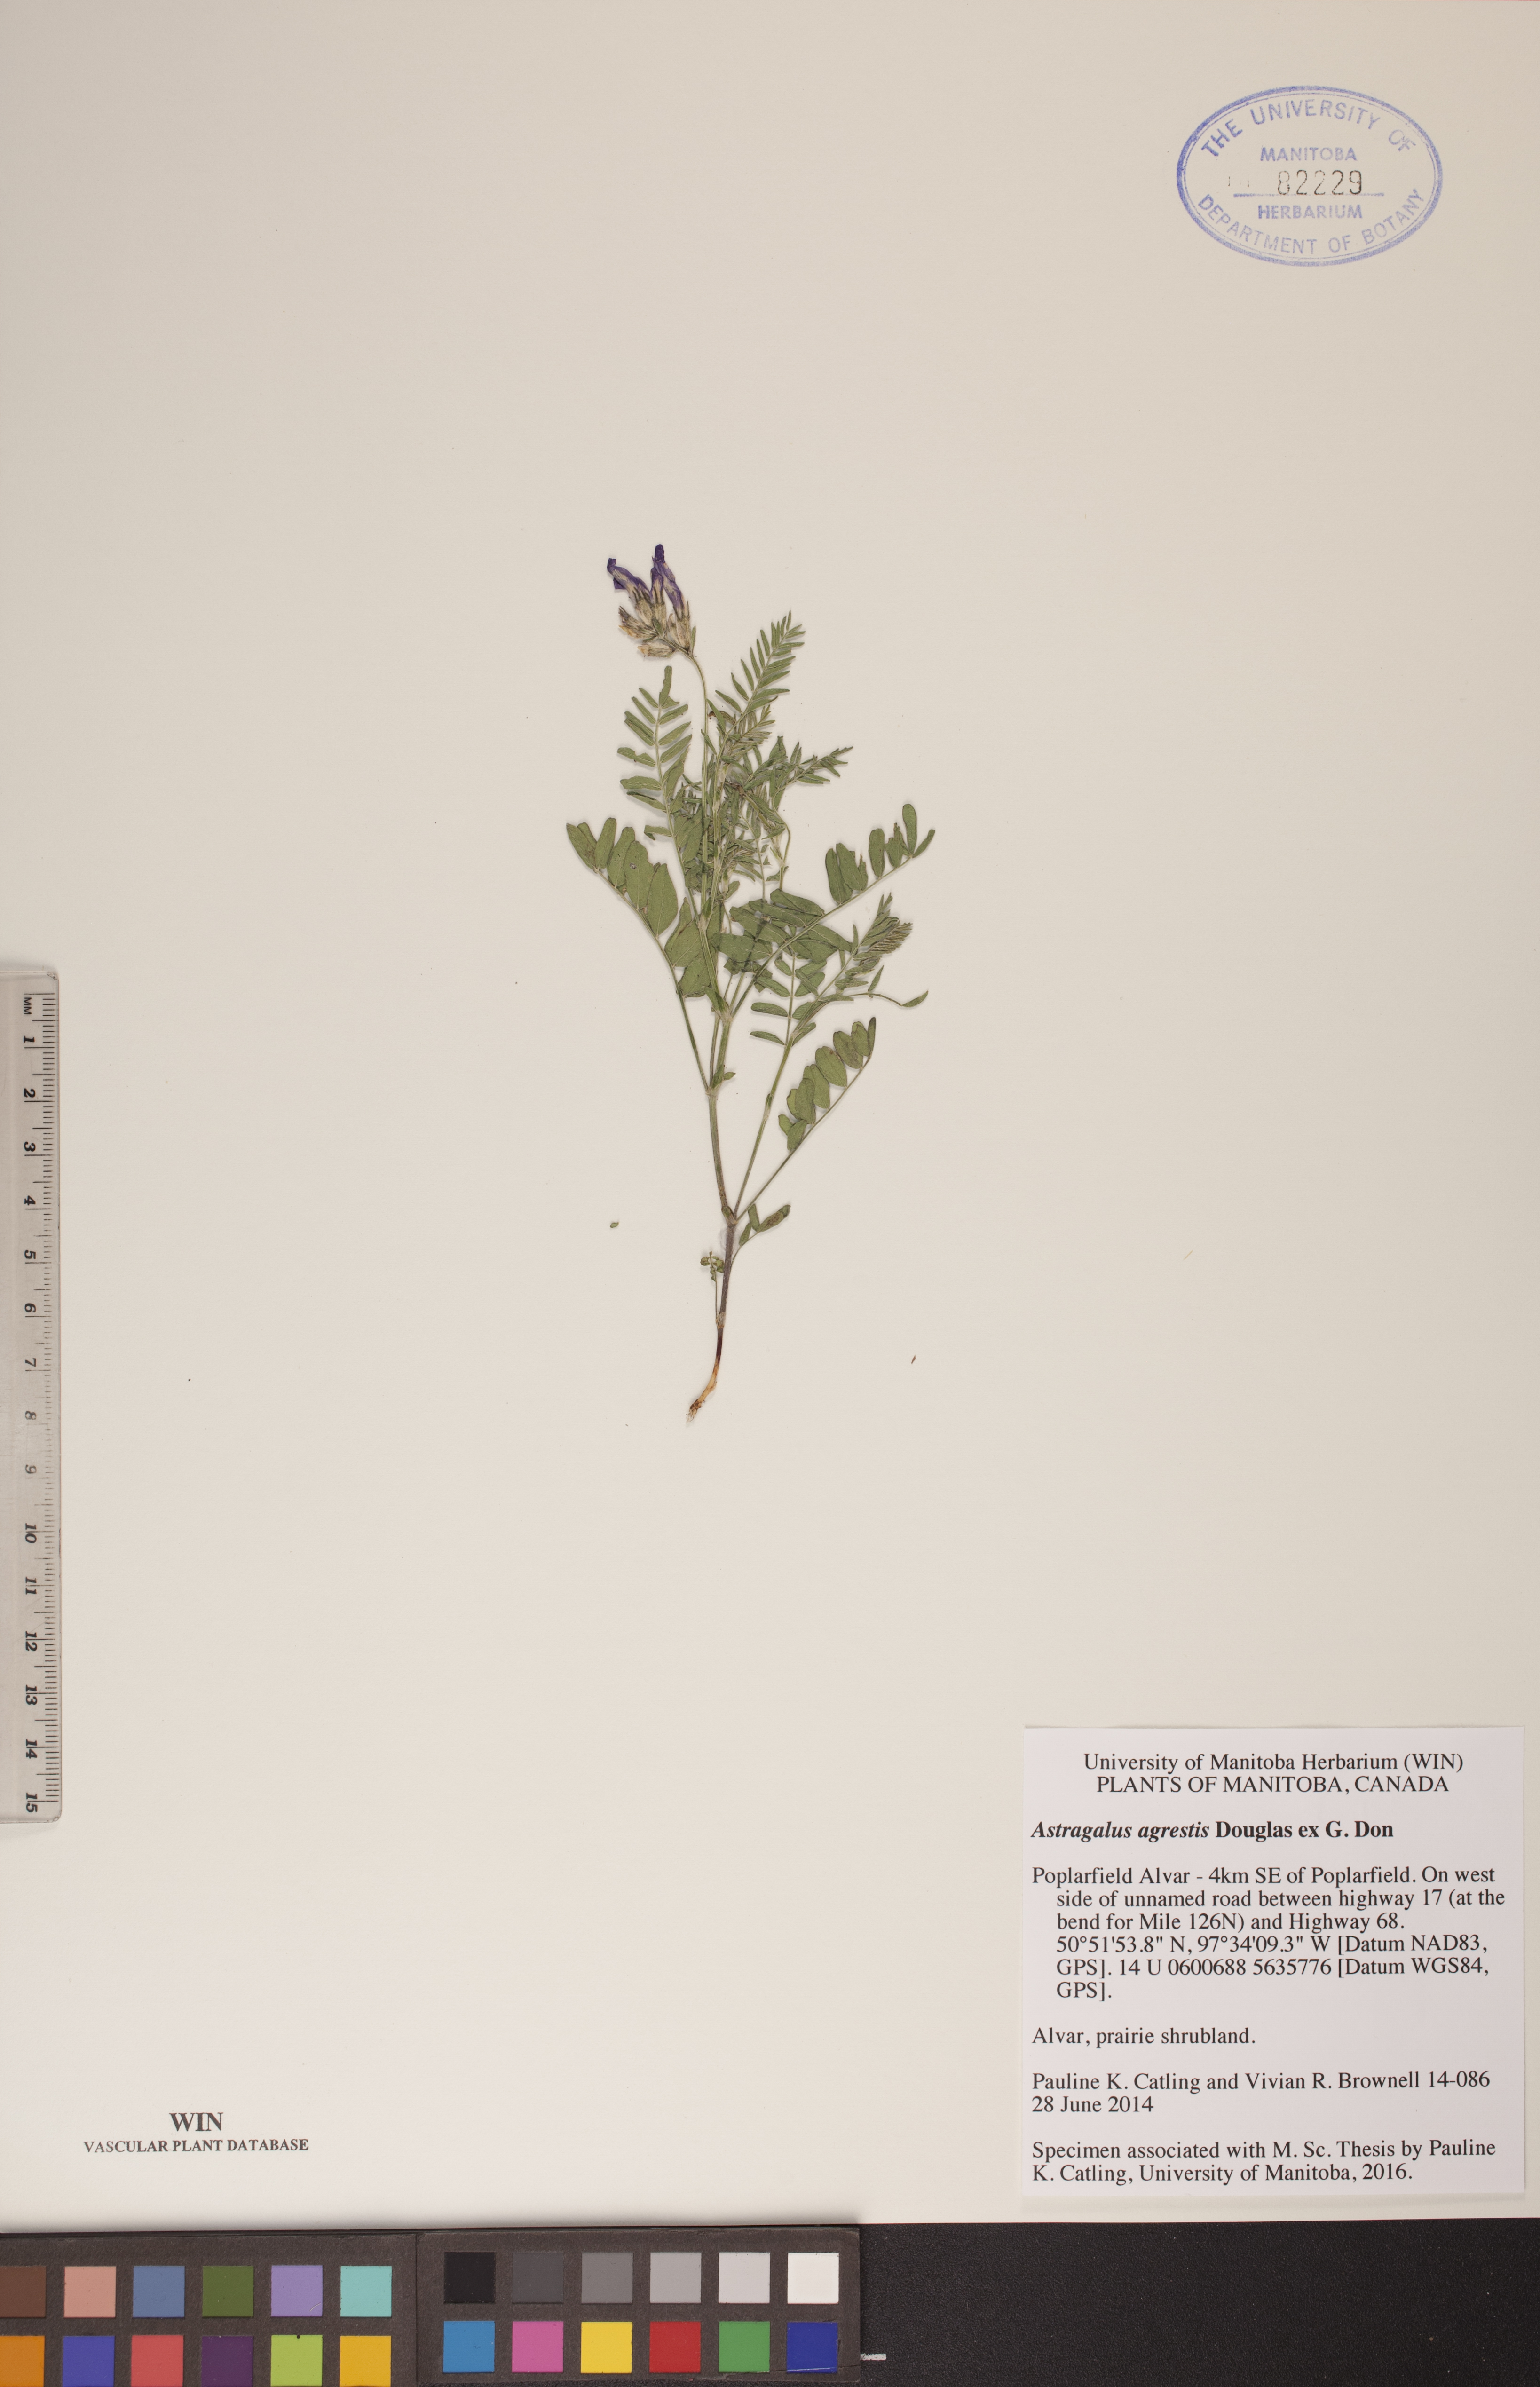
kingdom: Plantae
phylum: Tracheophyta
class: Magnoliopsida
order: Fabales
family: Fabaceae
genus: Astragalus
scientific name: Astragalus agrestis
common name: Field milk-vetch
